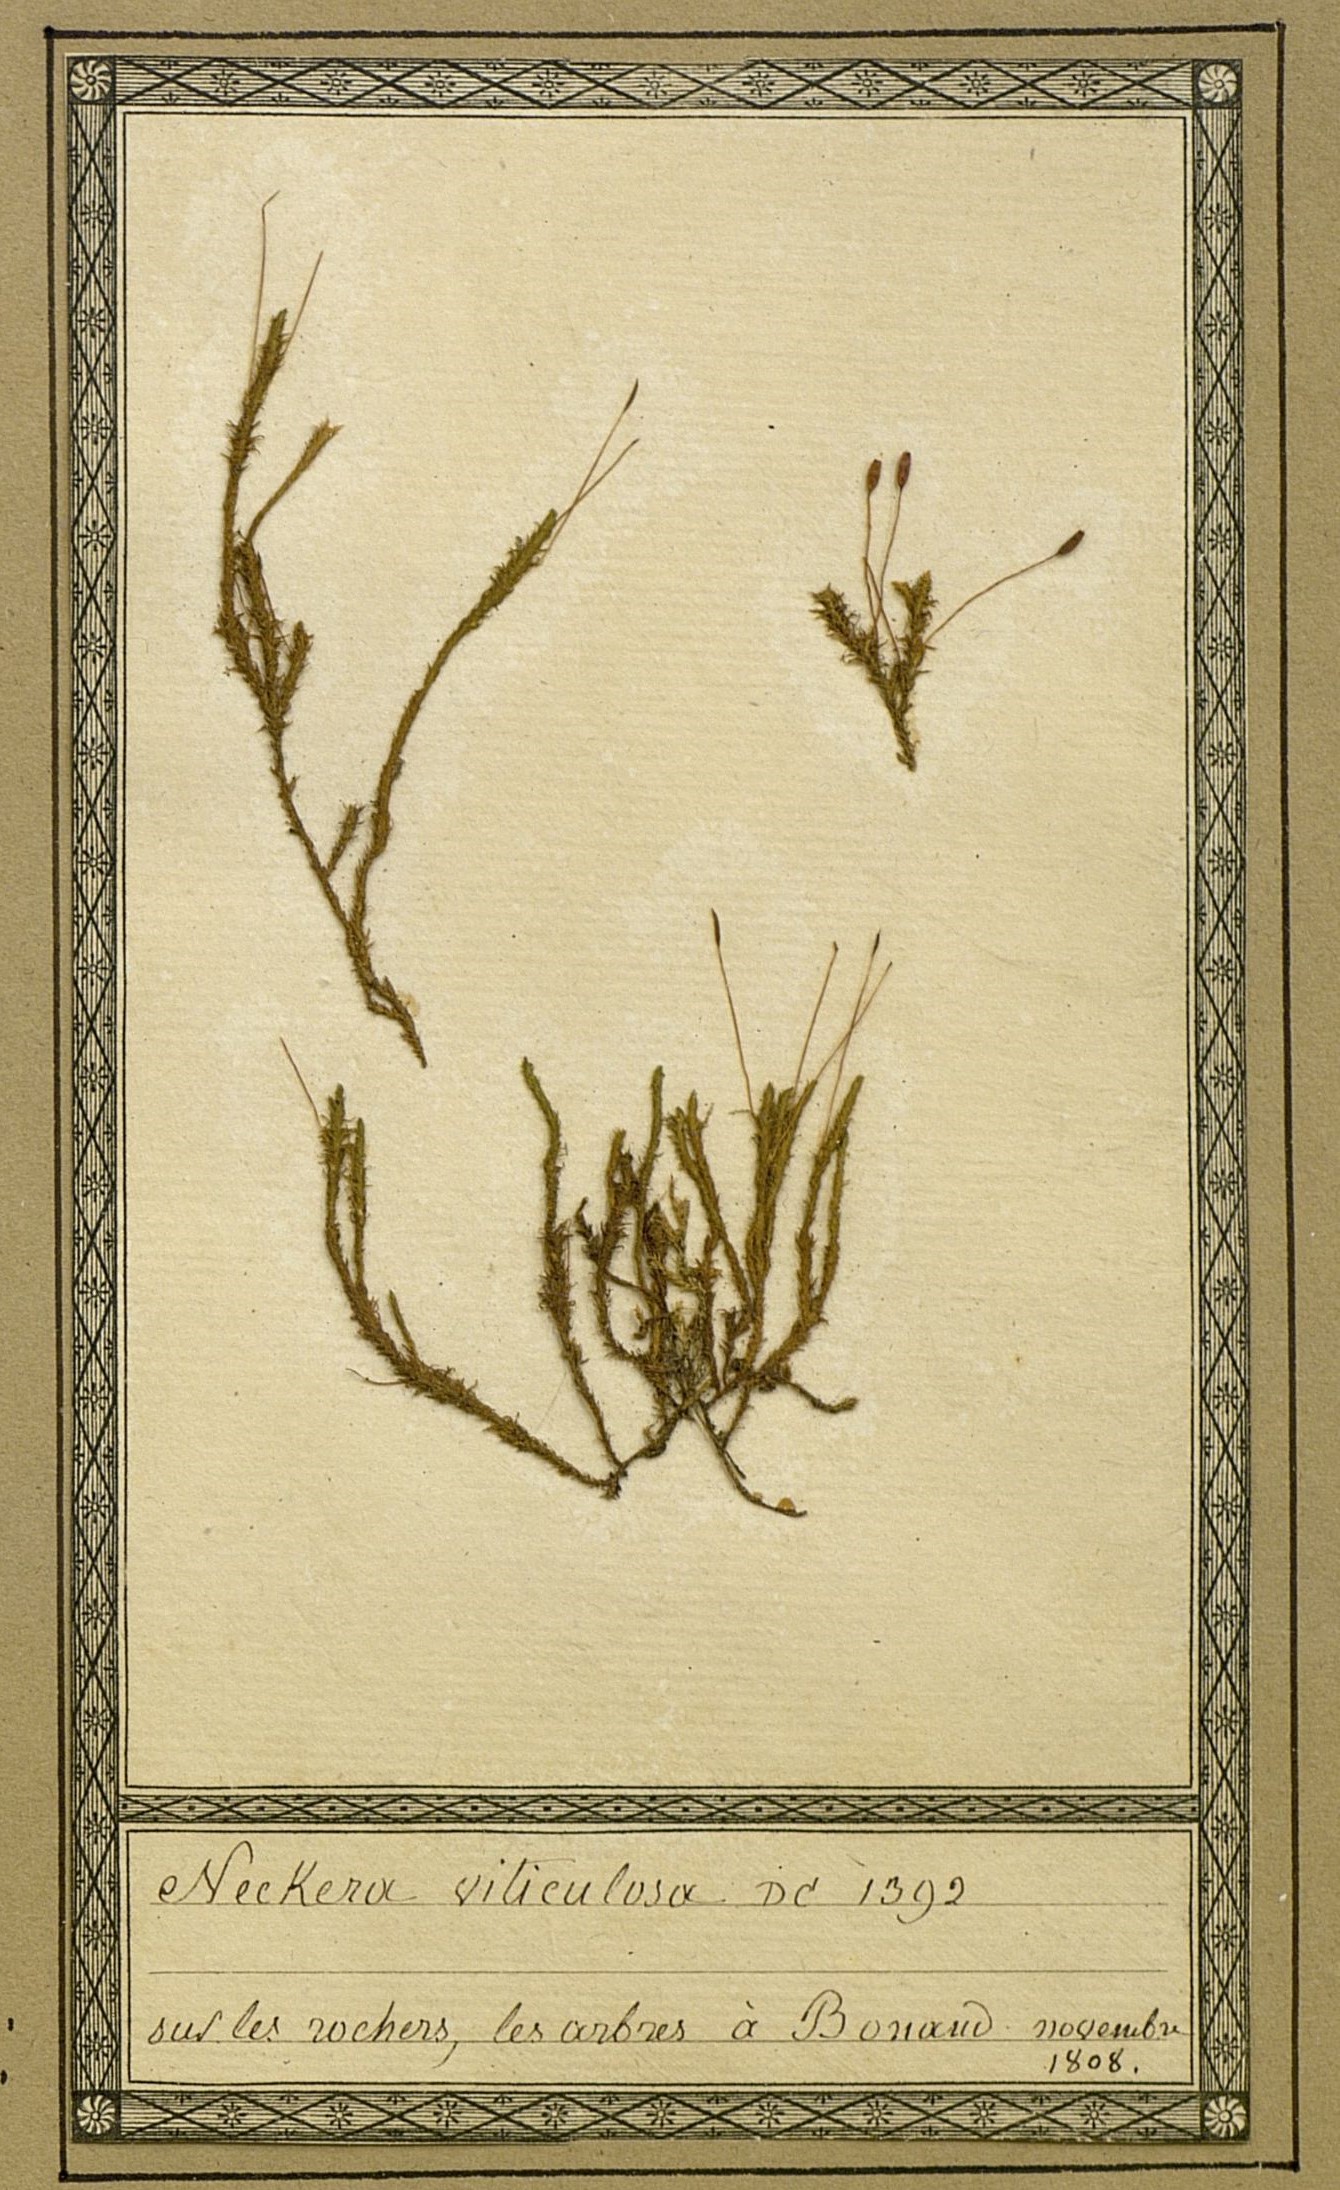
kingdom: Plantae
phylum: Bryophyta
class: Bryopsida
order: Hypnales
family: Anomodontaceae
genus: Anomodon
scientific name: Anomodon viticulosus
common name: Tall anomodon
